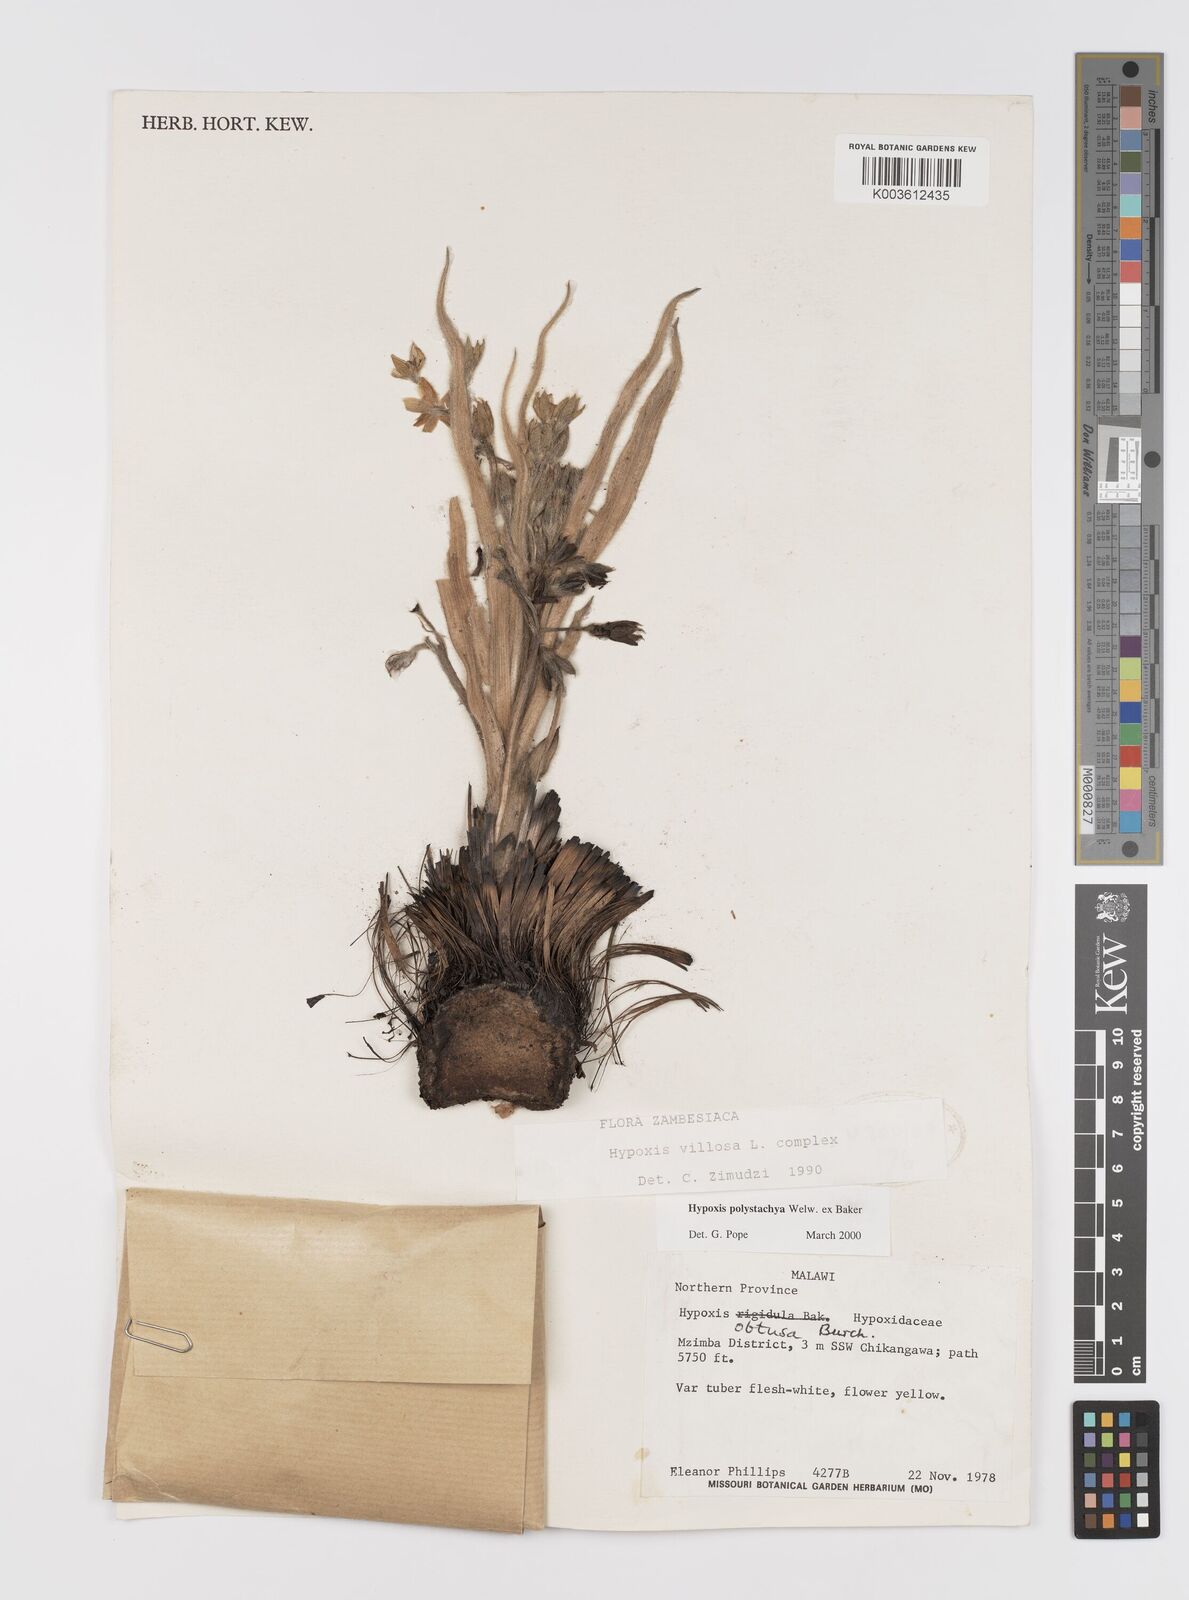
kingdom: Plantae
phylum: Tracheophyta
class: Liliopsida
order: Asparagales
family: Hypoxidaceae
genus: Hypoxis
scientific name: Hypoxis polystachya
